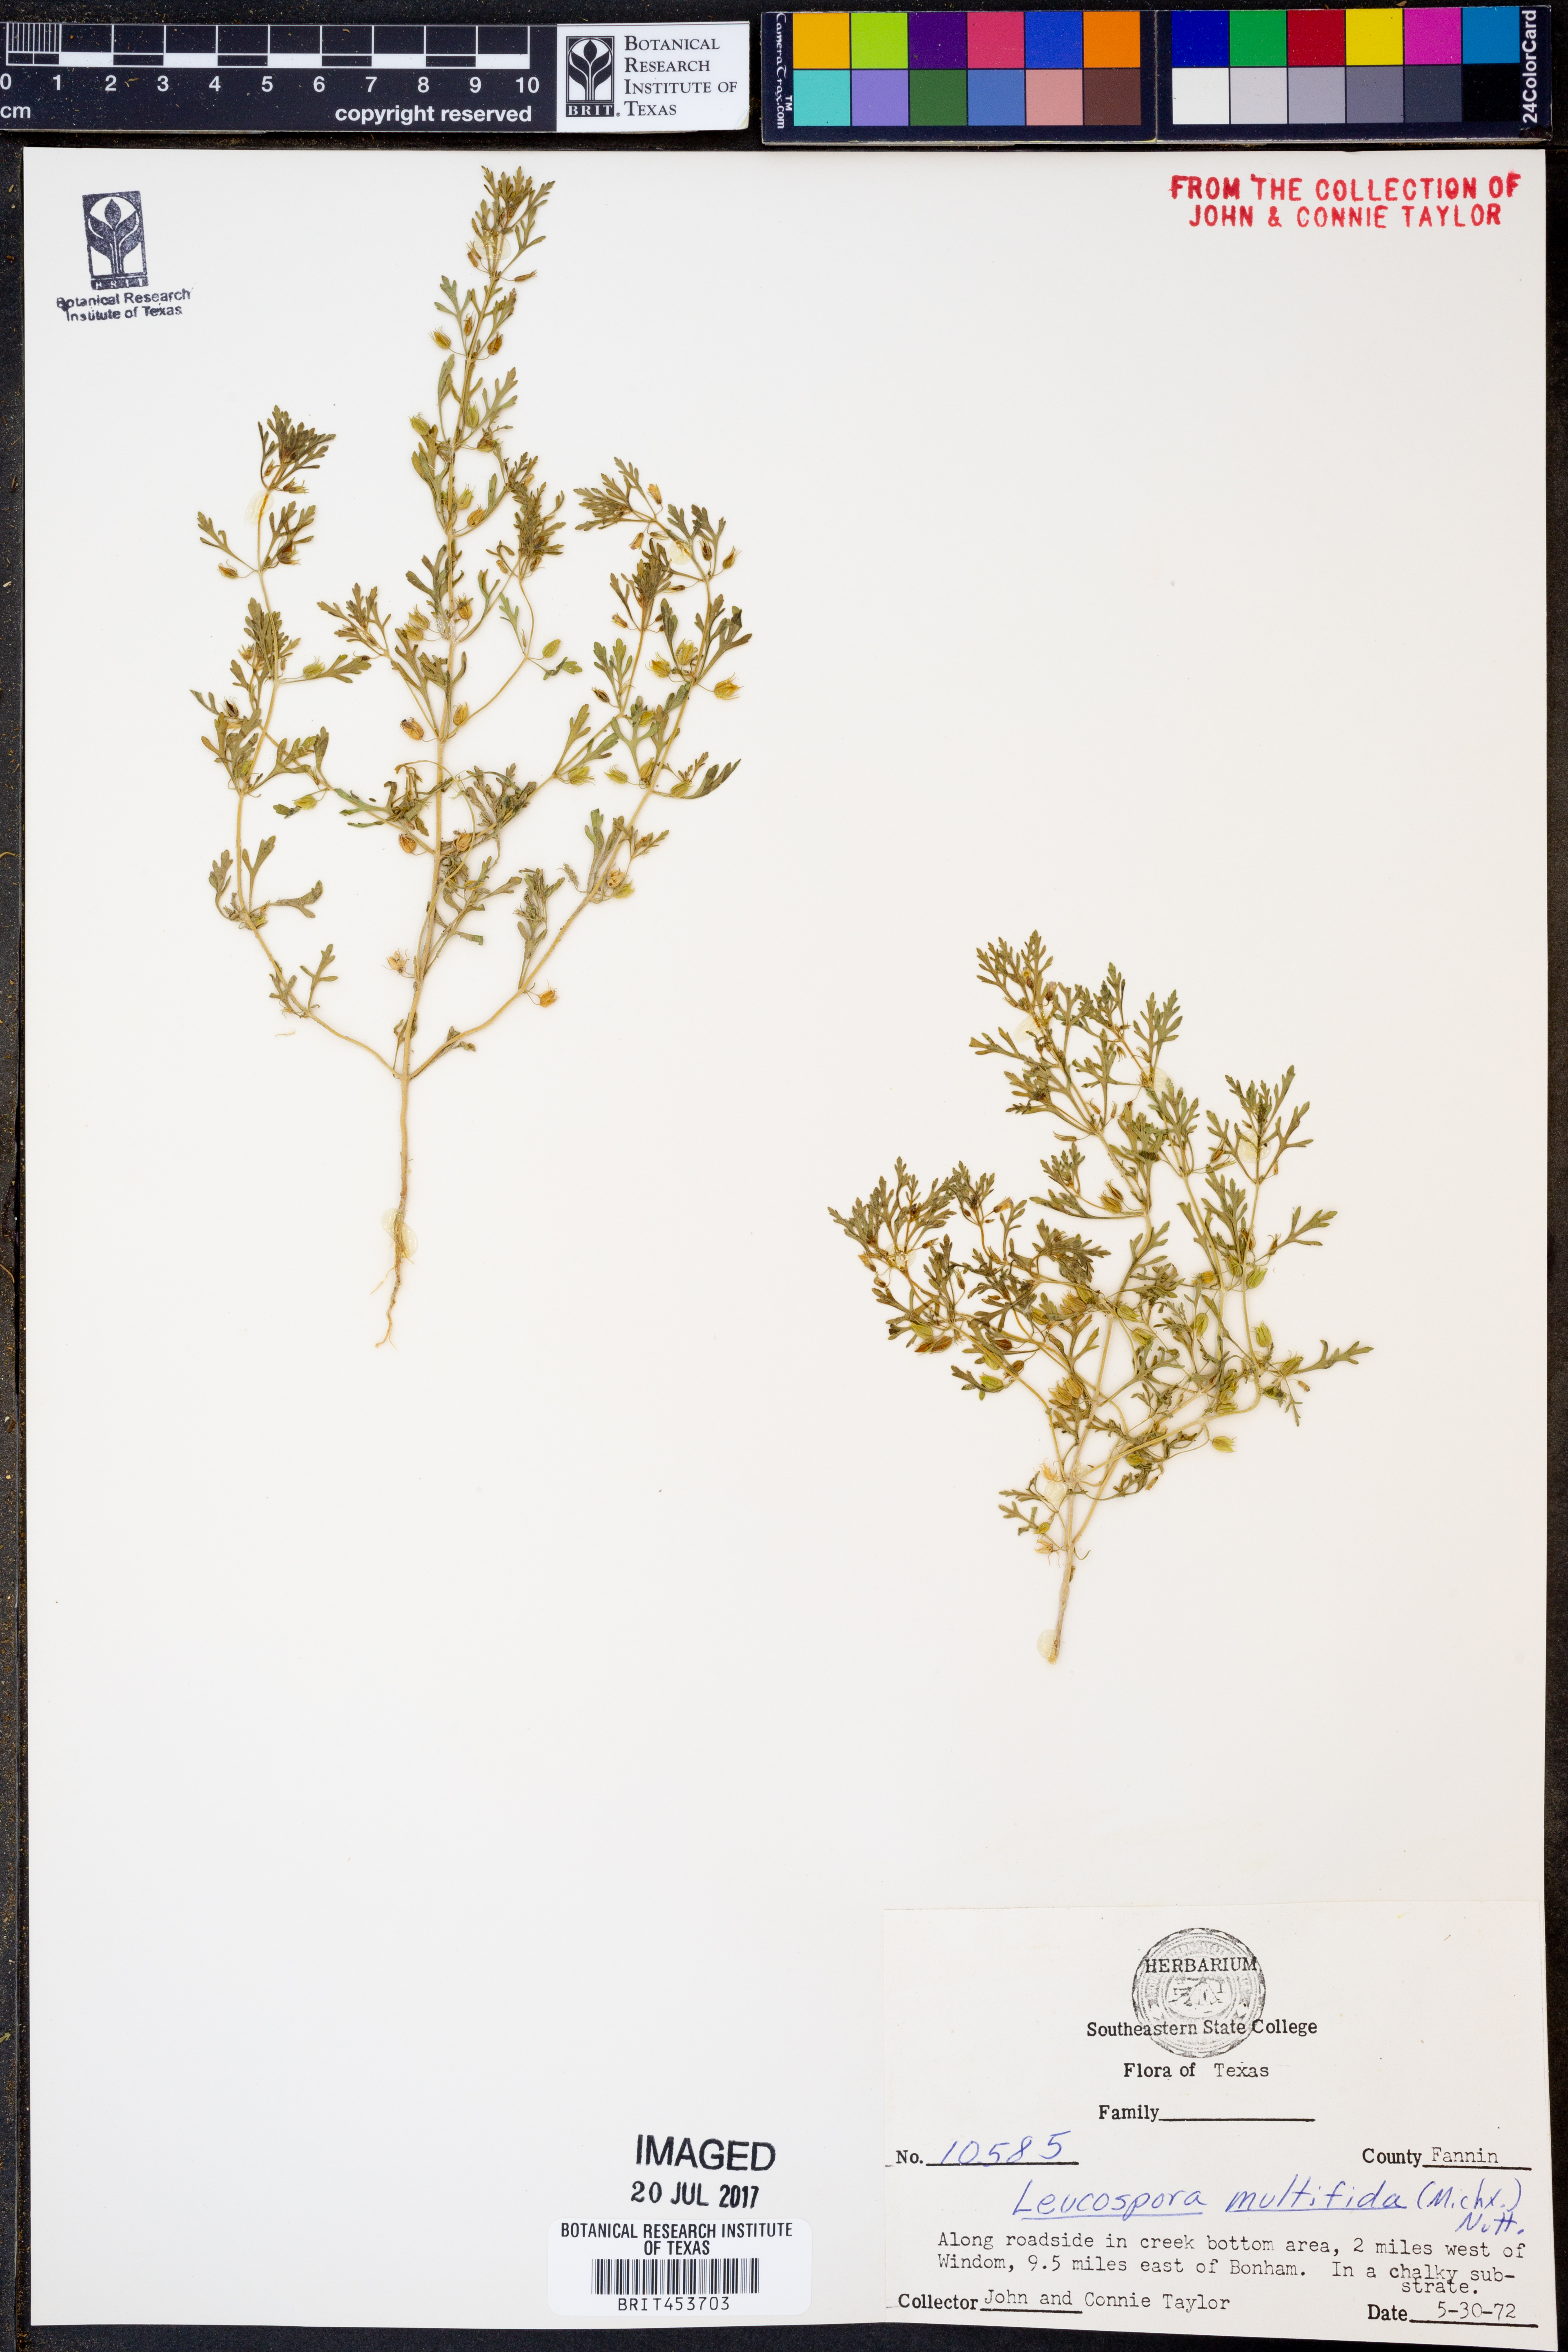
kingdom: Plantae
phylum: Tracheophyta
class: Magnoliopsida
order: Lamiales
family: Plantaginaceae
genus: Leucospora
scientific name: Leucospora multifida
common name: Narrow-leaf paleseed
